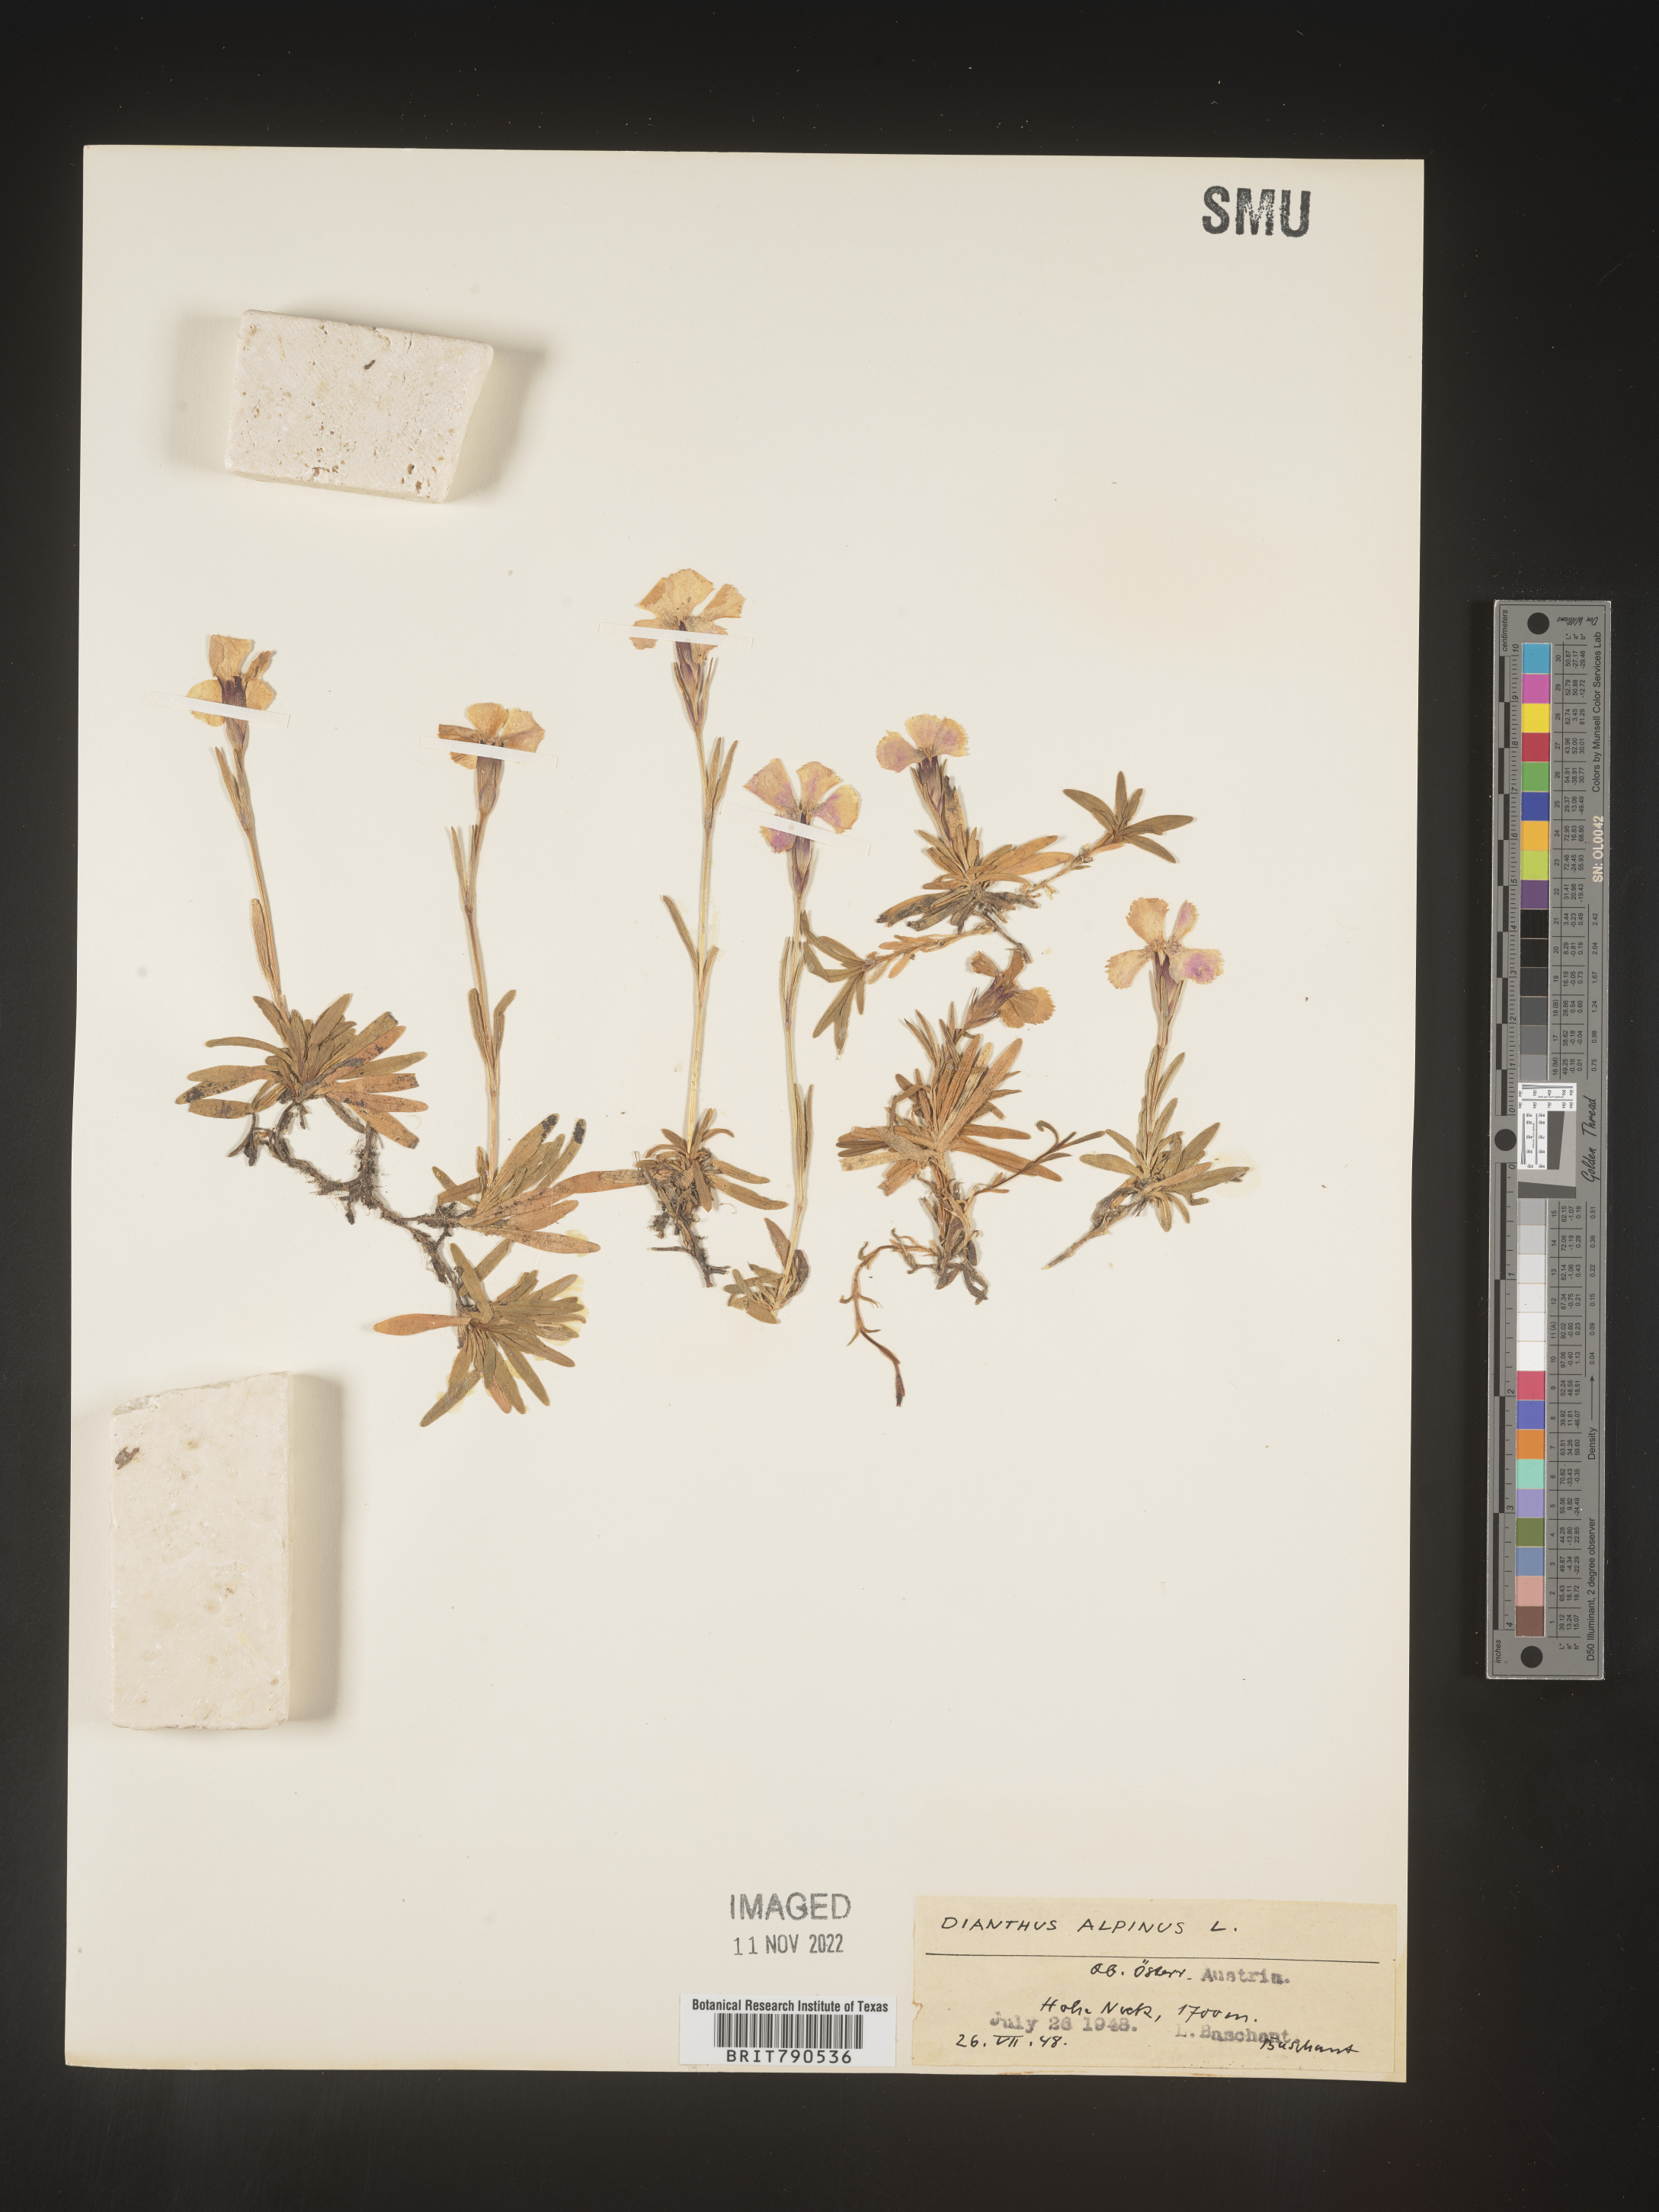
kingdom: Plantae
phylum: Tracheophyta
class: Magnoliopsida
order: Caryophyllales
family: Caryophyllaceae
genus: Dianthus
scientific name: Dianthus
